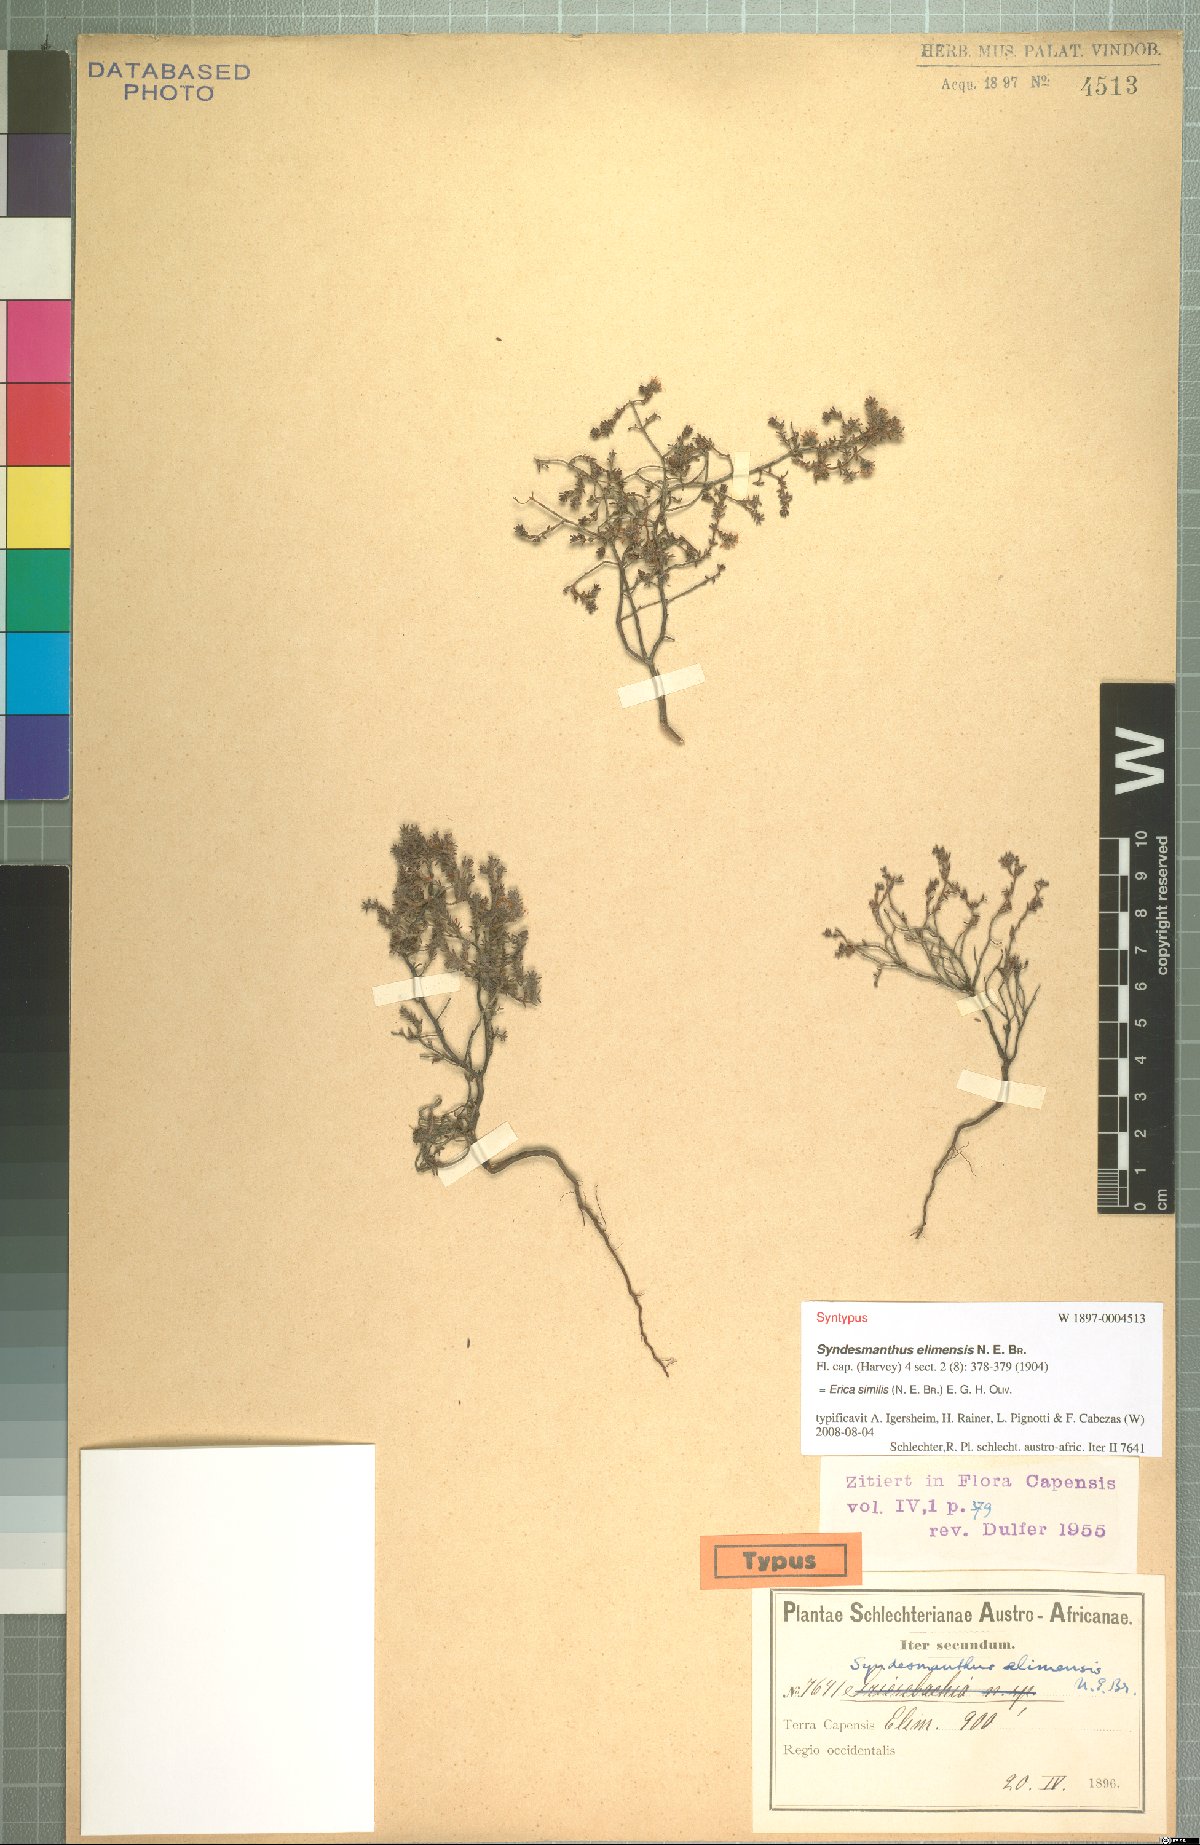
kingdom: Plantae
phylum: Tracheophyta
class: Magnoliopsida
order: Ericales
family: Ericaceae
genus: Erica
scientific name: Erica similis
